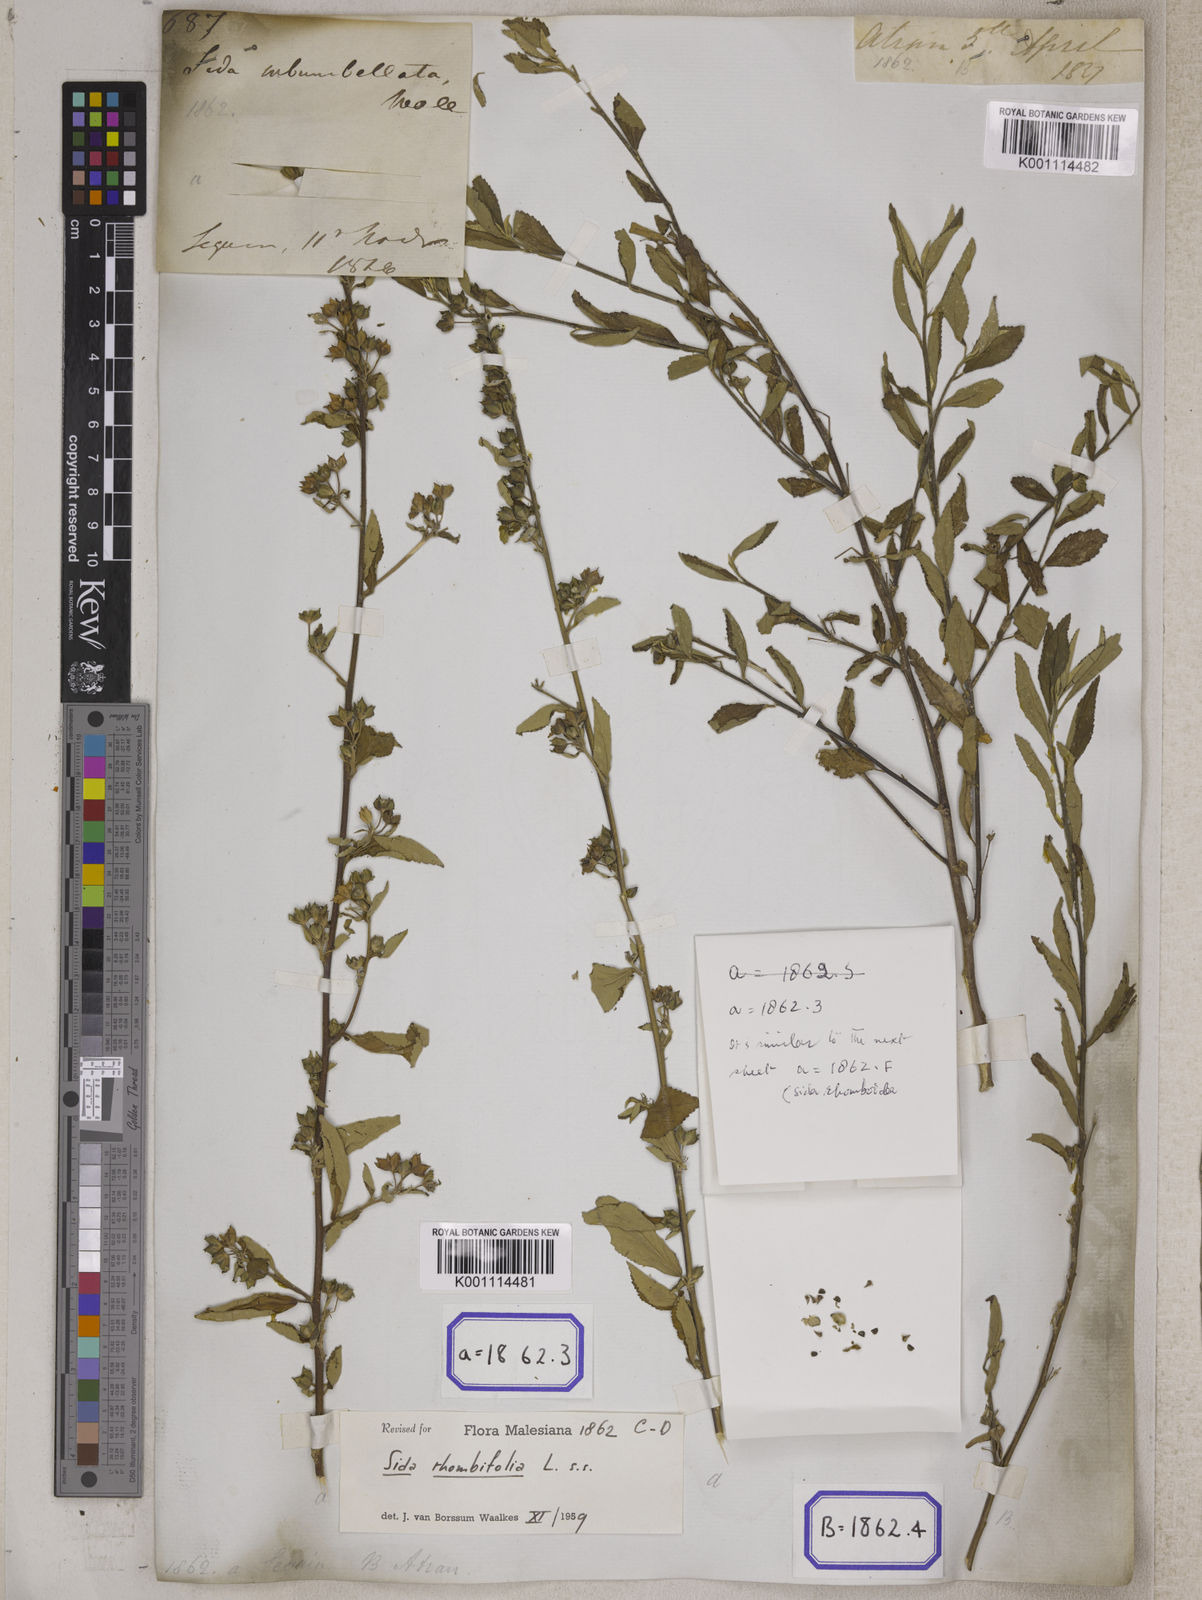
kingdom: Plantae
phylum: Tracheophyta
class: Magnoliopsida
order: Malvales
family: Malvaceae
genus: Sida
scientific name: Sida rhombifolia
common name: Queensland-hemp
